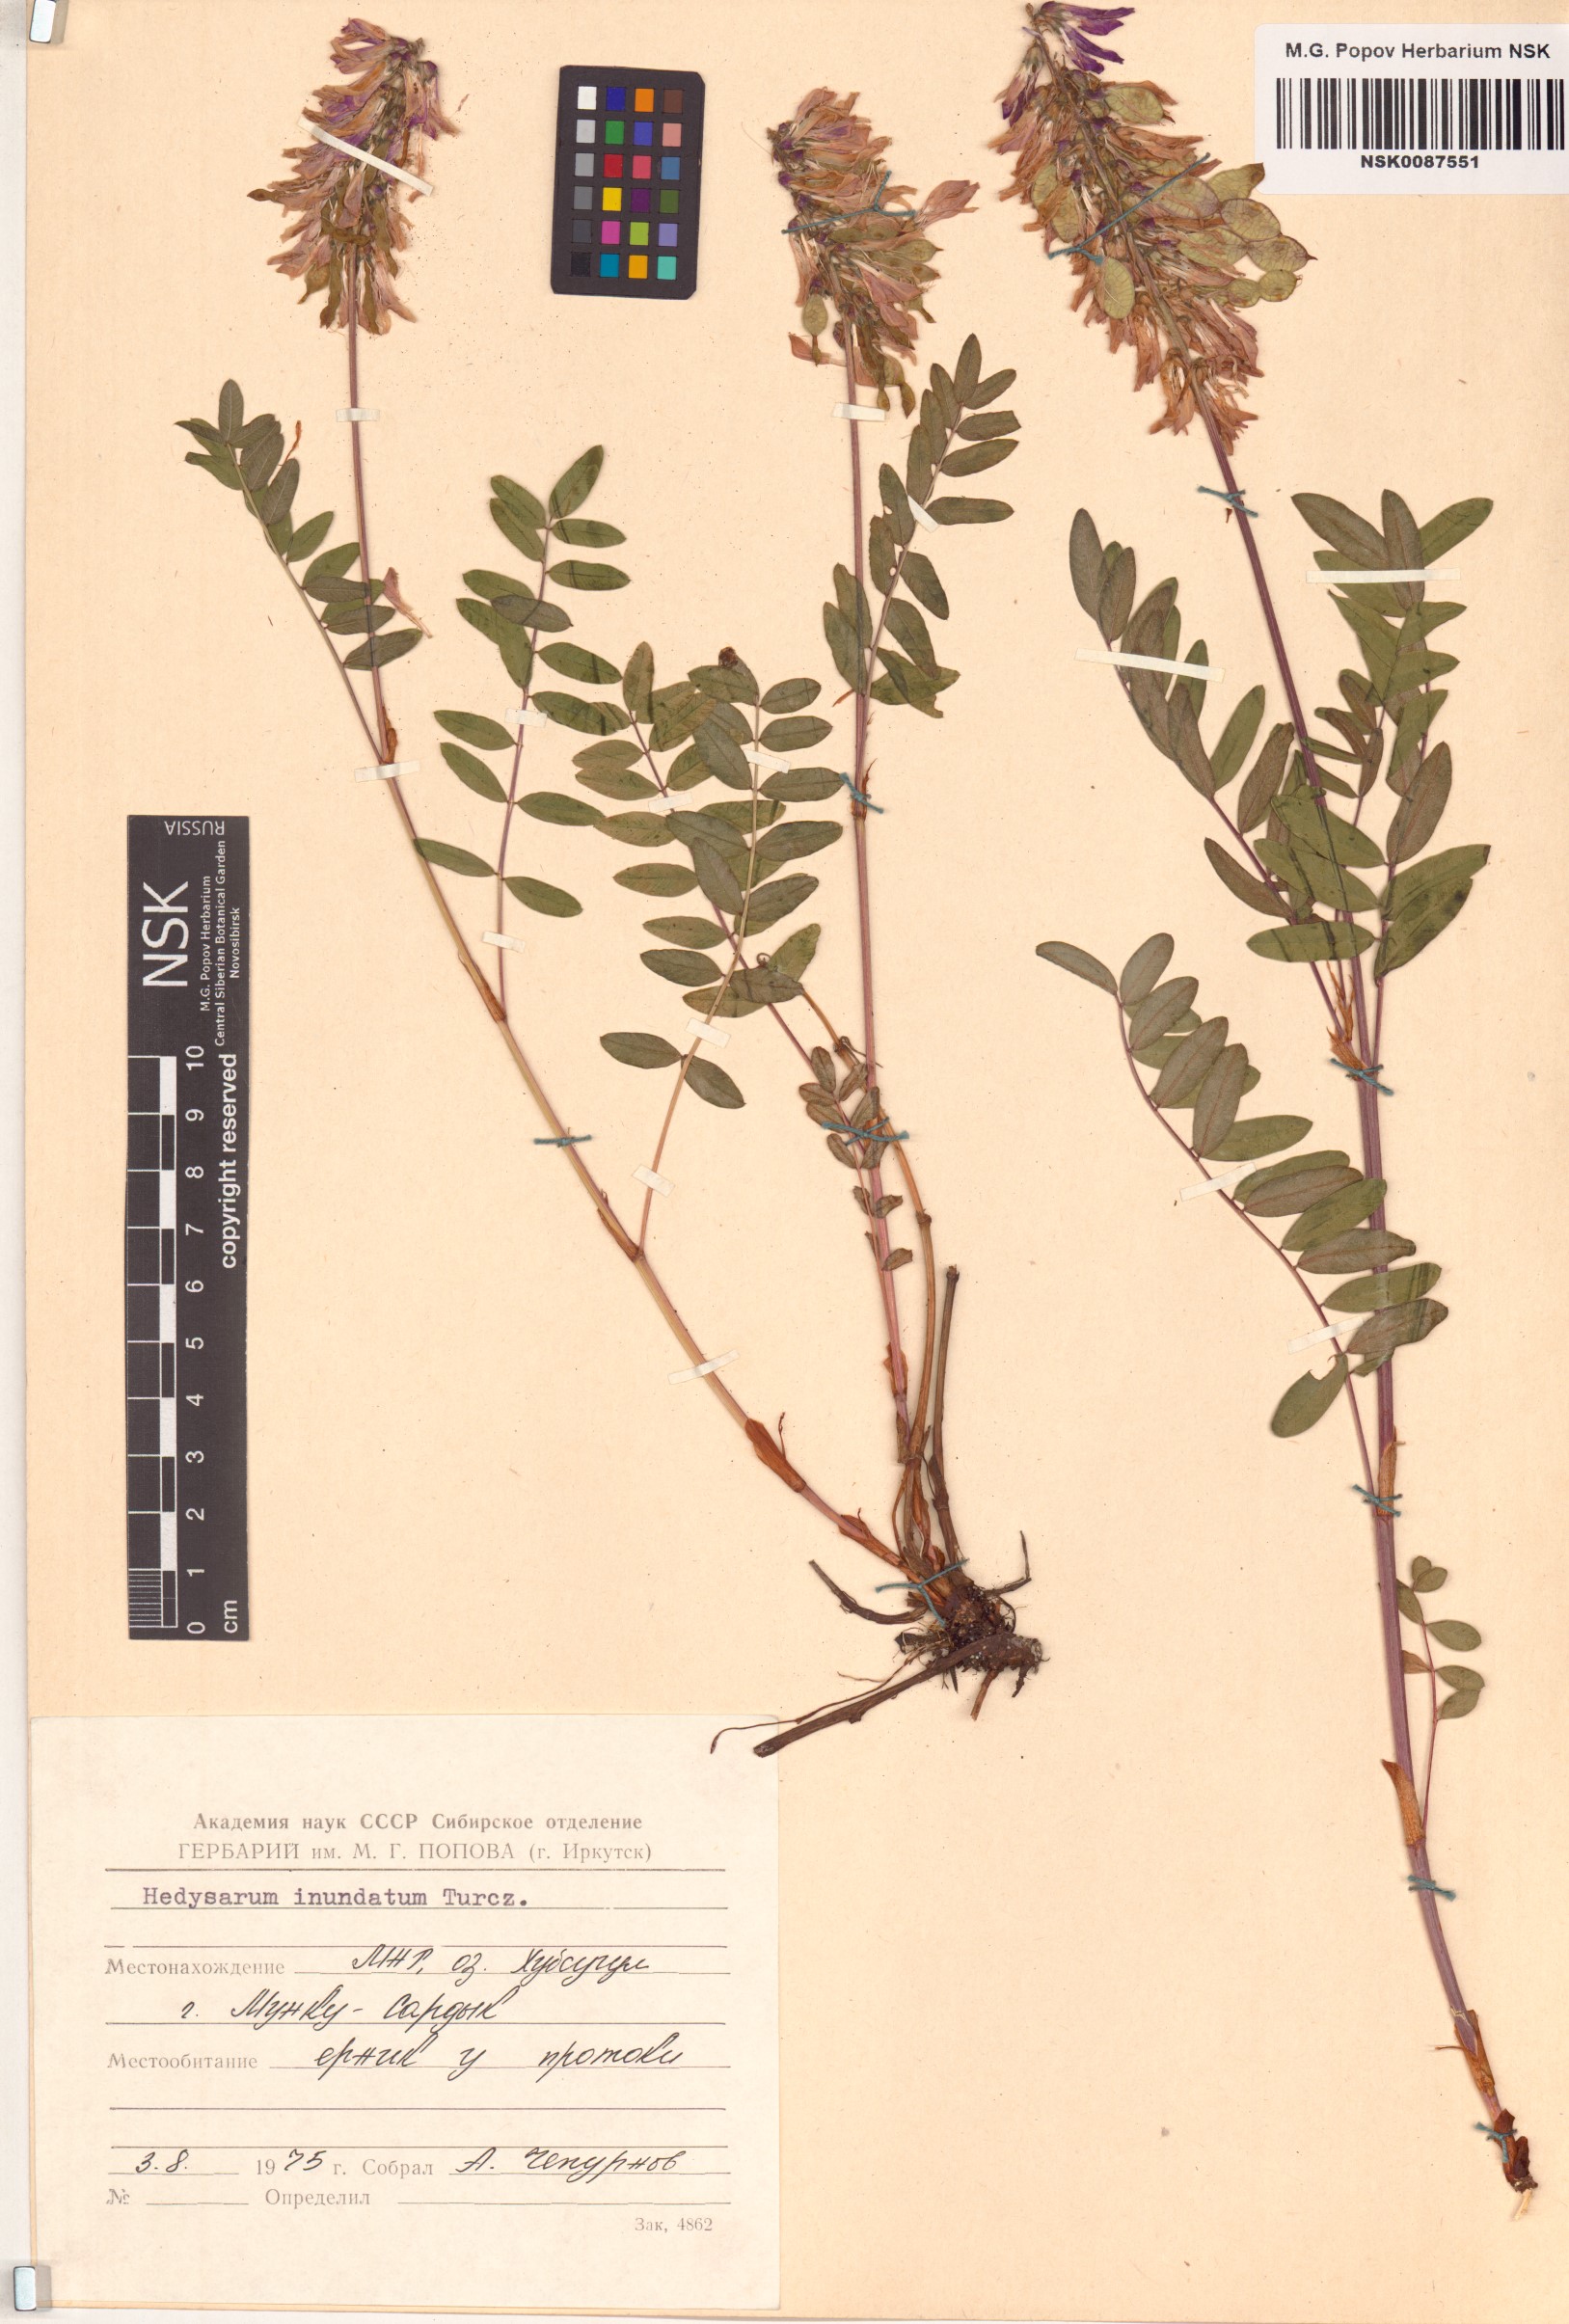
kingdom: Plantae
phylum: Tracheophyta
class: Magnoliopsida
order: Fabales
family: Fabaceae
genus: Hedysarum
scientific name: Hedysarum inundatum
